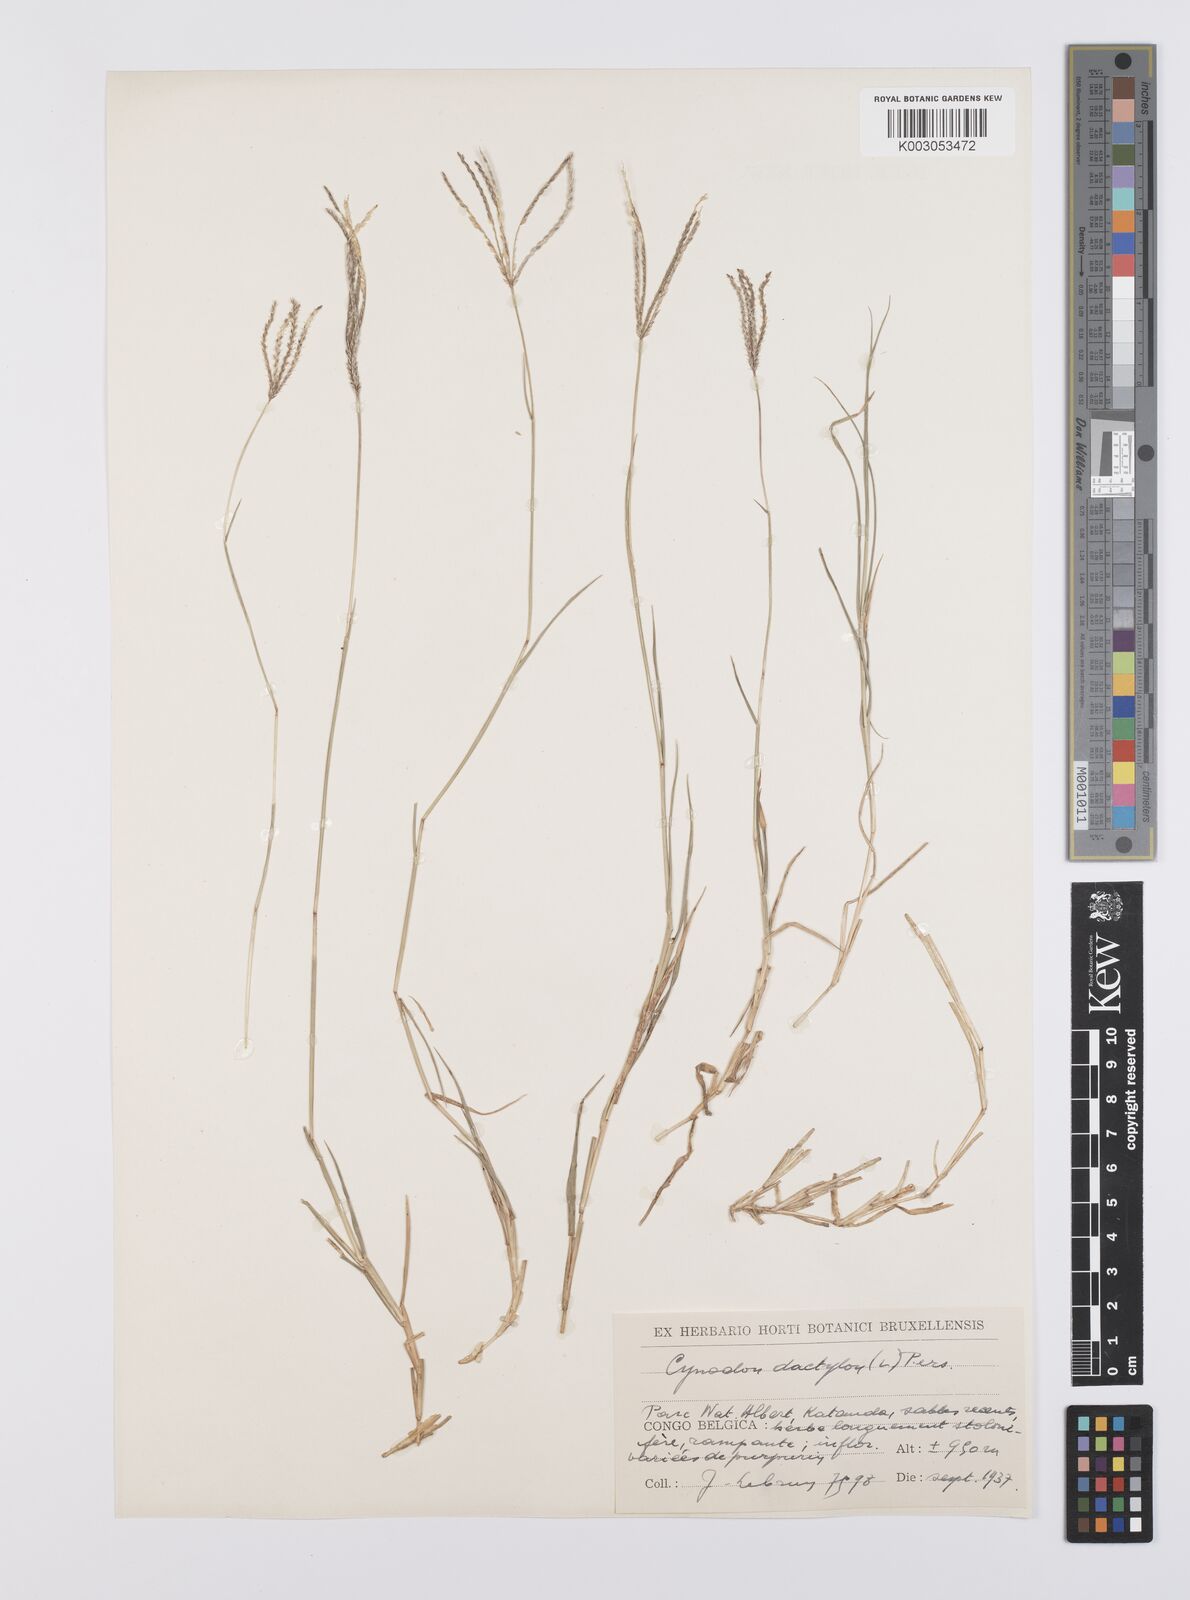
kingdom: Plantae
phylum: Tracheophyta
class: Liliopsida
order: Poales
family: Poaceae
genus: Cynodon
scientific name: Cynodon dactylon
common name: Bermuda grass
